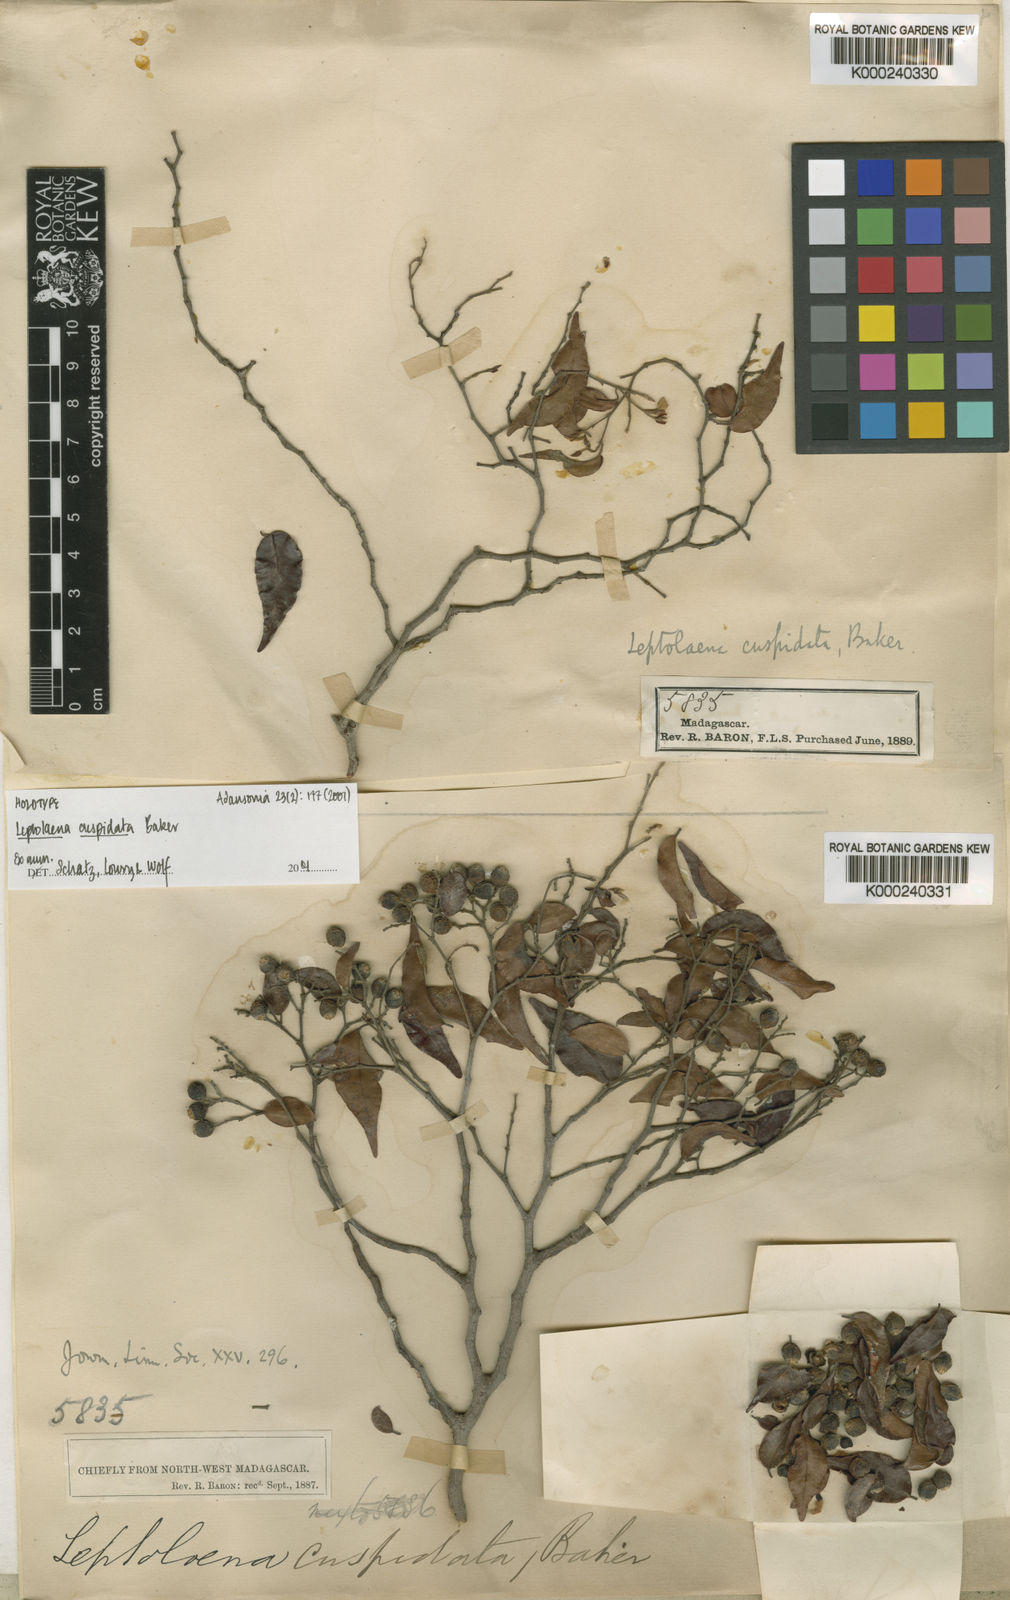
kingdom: Plantae
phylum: Tracheophyta
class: Magnoliopsida
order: Malvales
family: Sarcolaenaceae
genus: Leptolaena
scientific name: Leptolaena cuspidata
